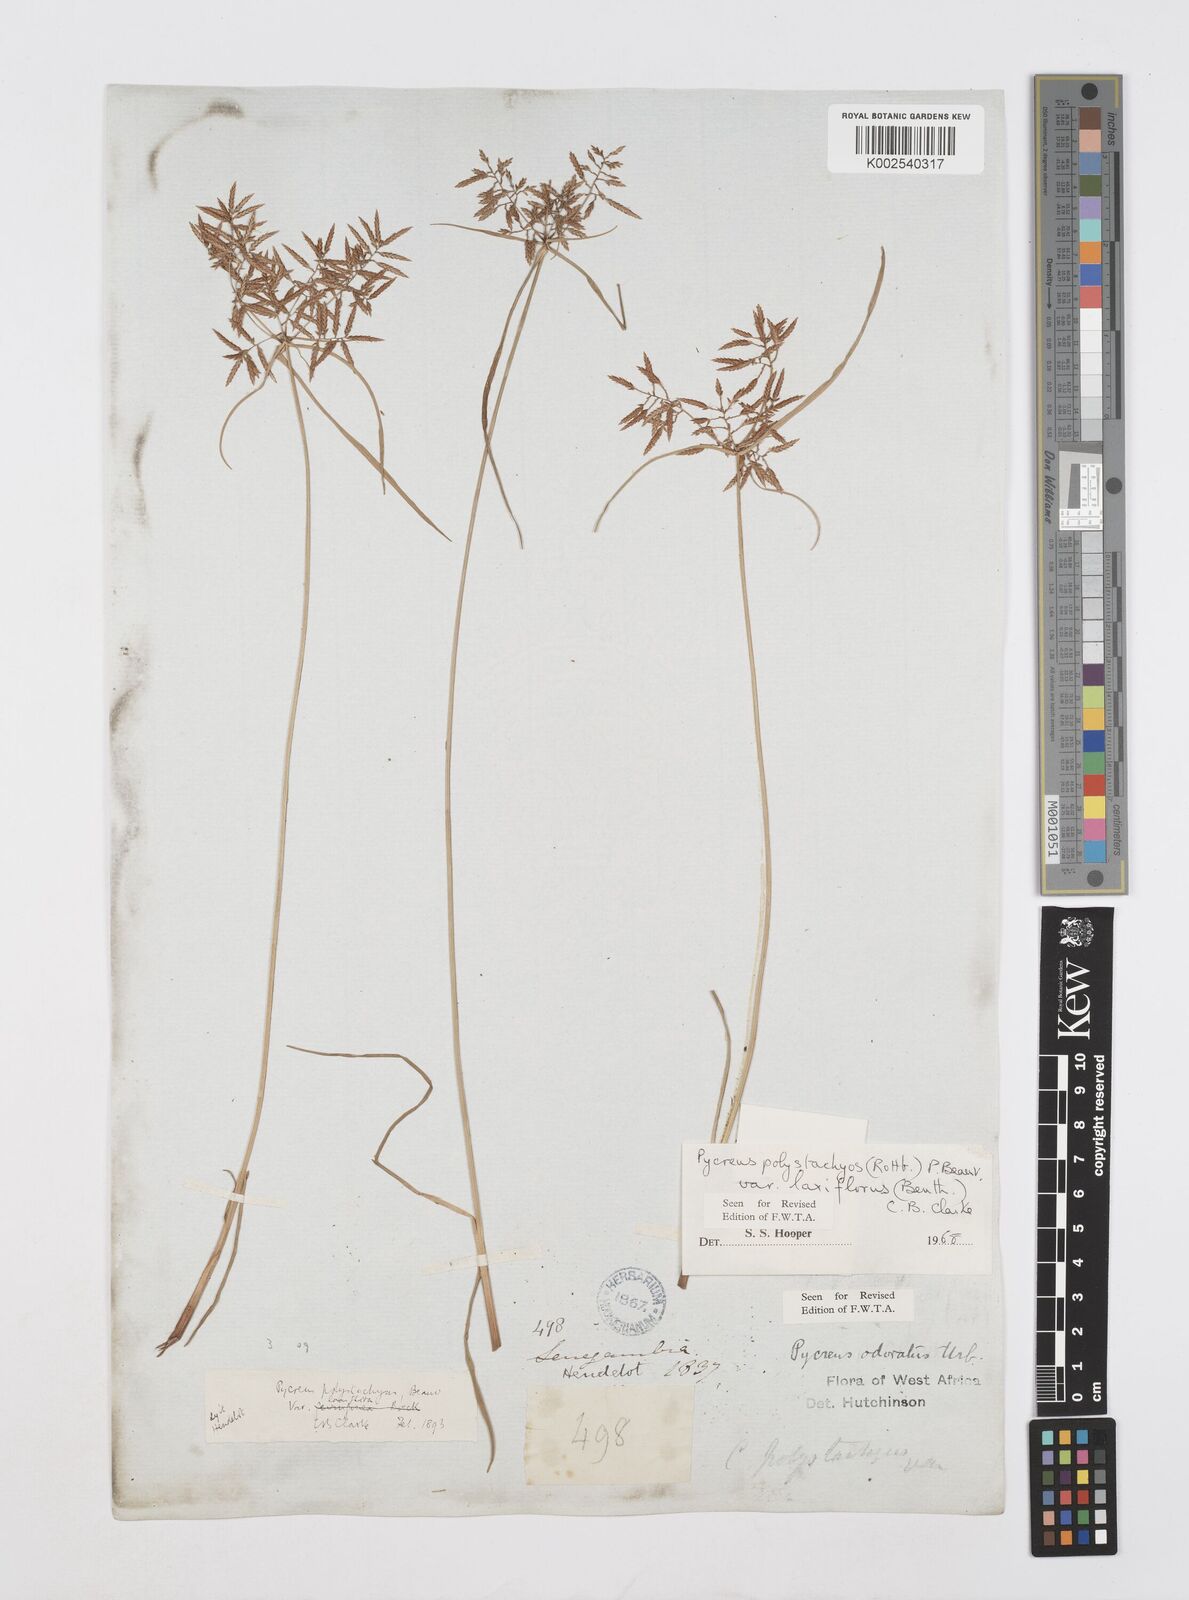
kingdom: Plantae
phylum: Tracheophyta
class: Liliopsida
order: Poales
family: Cyperaceae
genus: Cyperus
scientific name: Cyperus polystachyos
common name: Bunchy flat sedge
